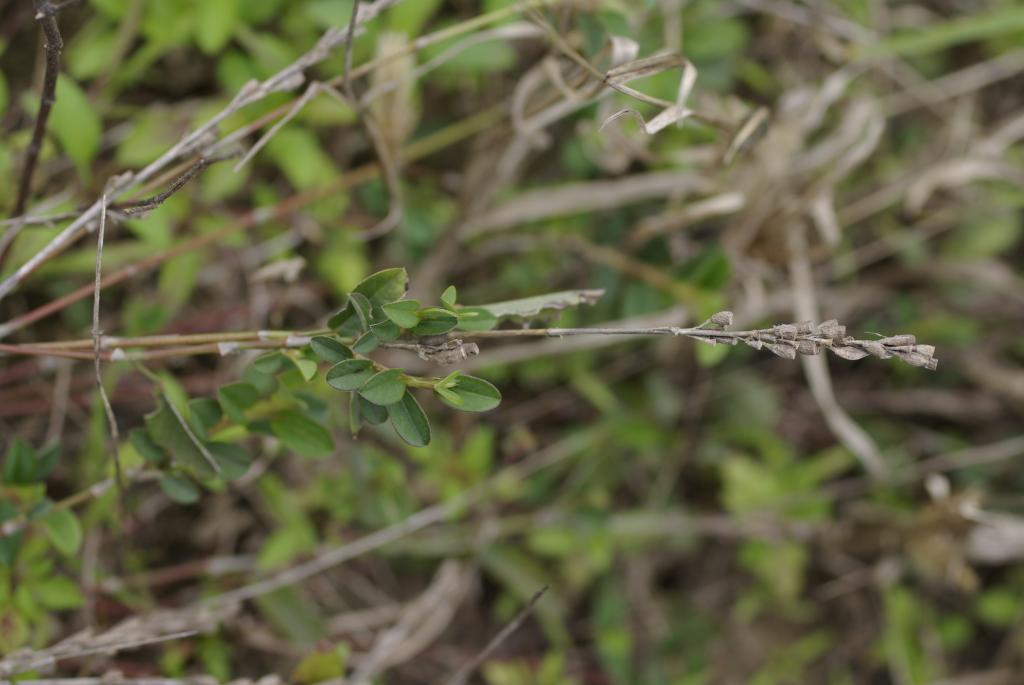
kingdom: Plantae
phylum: Tracheophyta
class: Magnoliopsida
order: Fabales
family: Fabaceae
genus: Alysicarpus
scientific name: Alysicarpus ovalifolius
